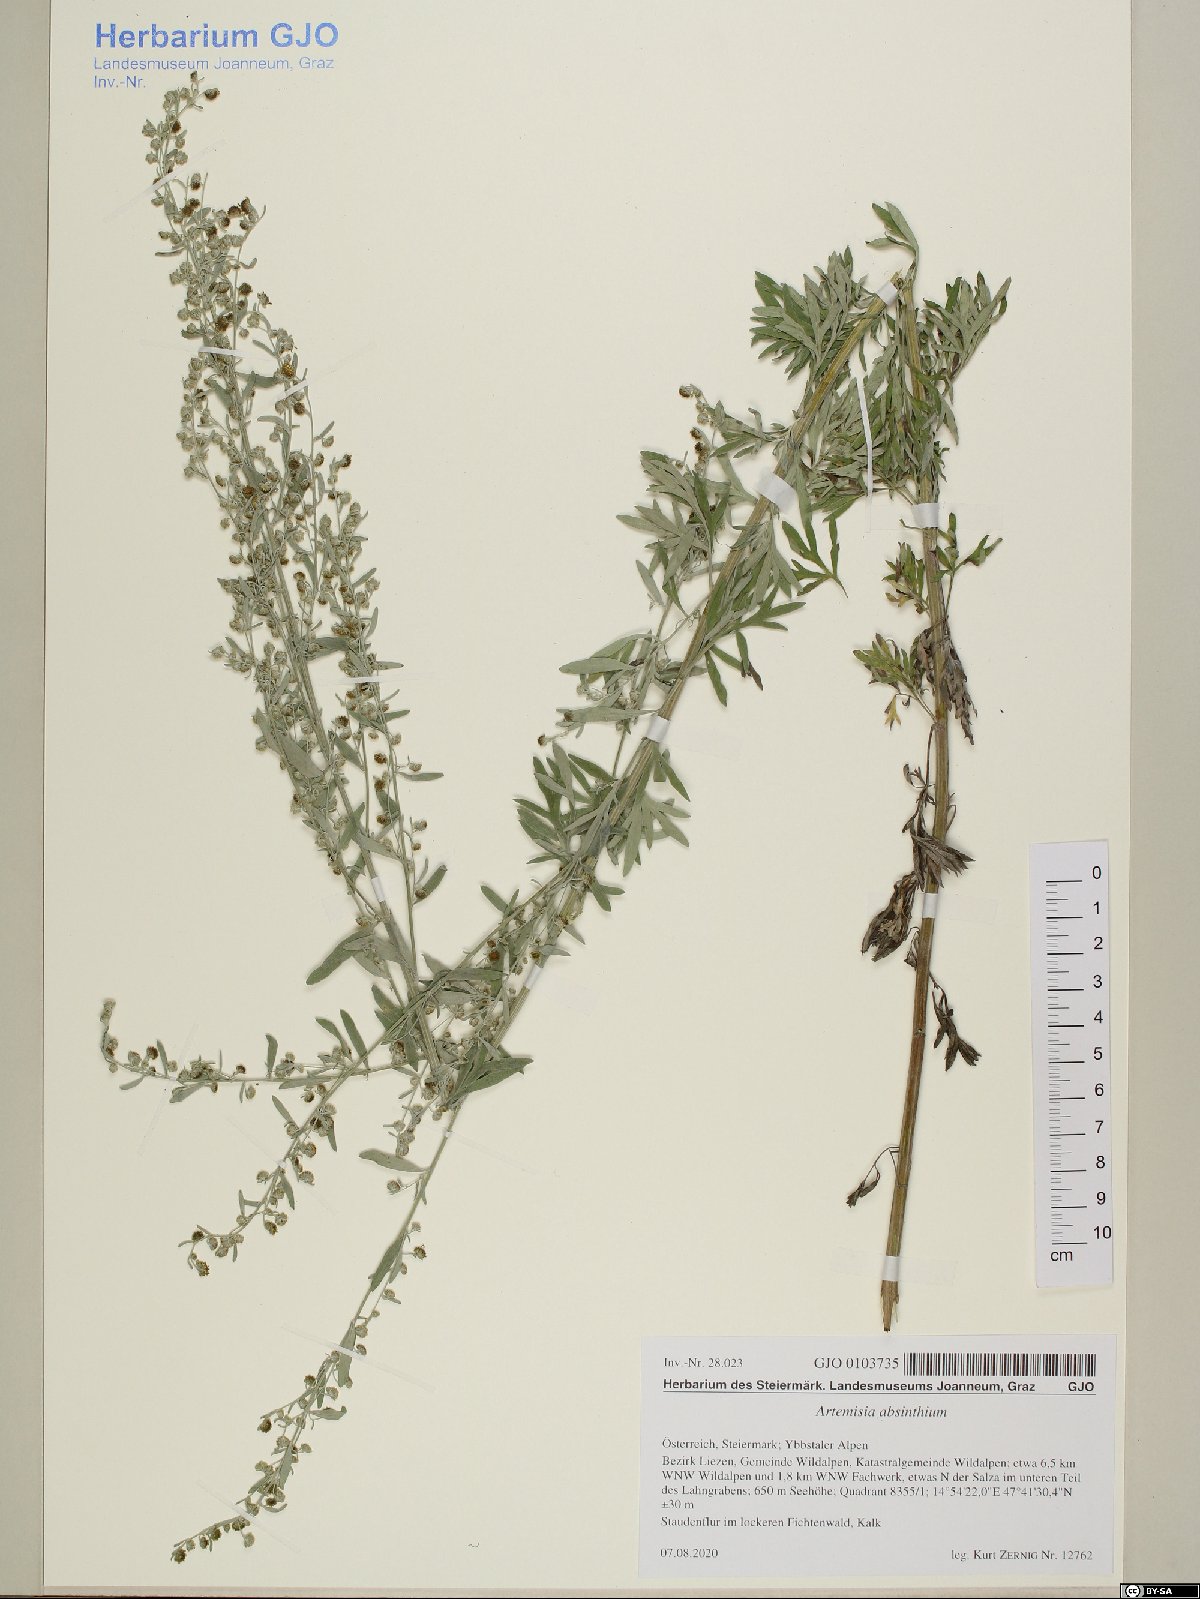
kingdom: Plantae
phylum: Tracheophyta
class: Magnoliopsida
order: Asterales
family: Asteraceae
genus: Artemisia
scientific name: Artemisia absinthium
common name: Wormwood
